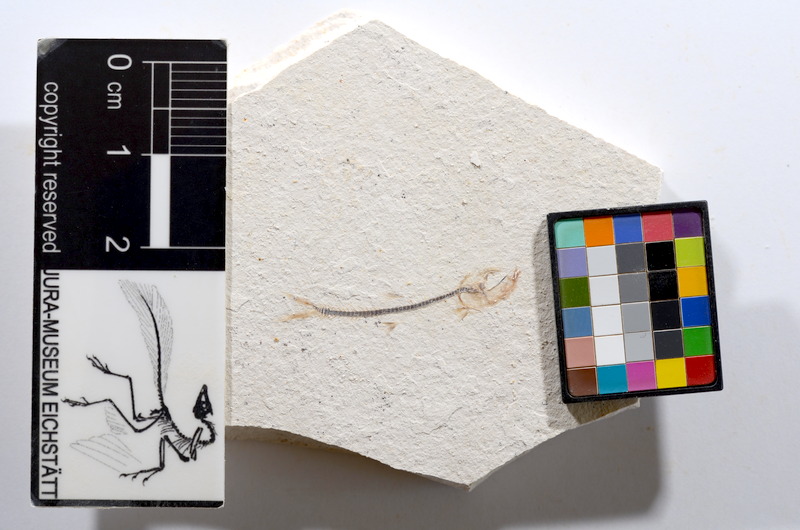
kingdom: Animalia
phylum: Chordata
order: Salmoniformes
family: Orthogonikleithridae
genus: Orthogonikleithrus
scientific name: Orthogonikleithrus hoelli
